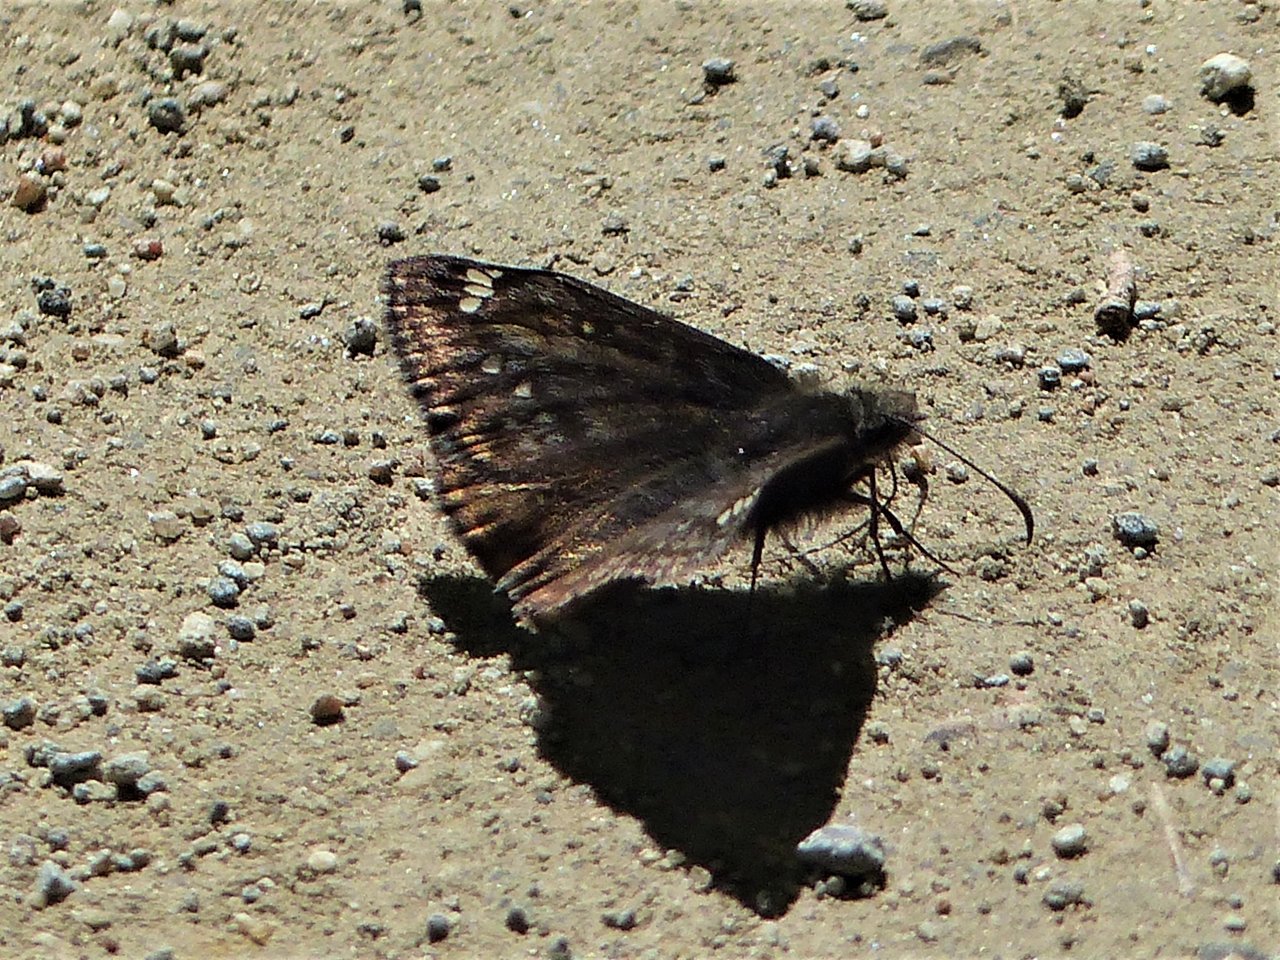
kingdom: Animalia
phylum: Arthropoda
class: Insecta
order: Lepidoptera
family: Hesperiidae
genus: Gesta
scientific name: Gesta
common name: Juvenal's Duskywing
